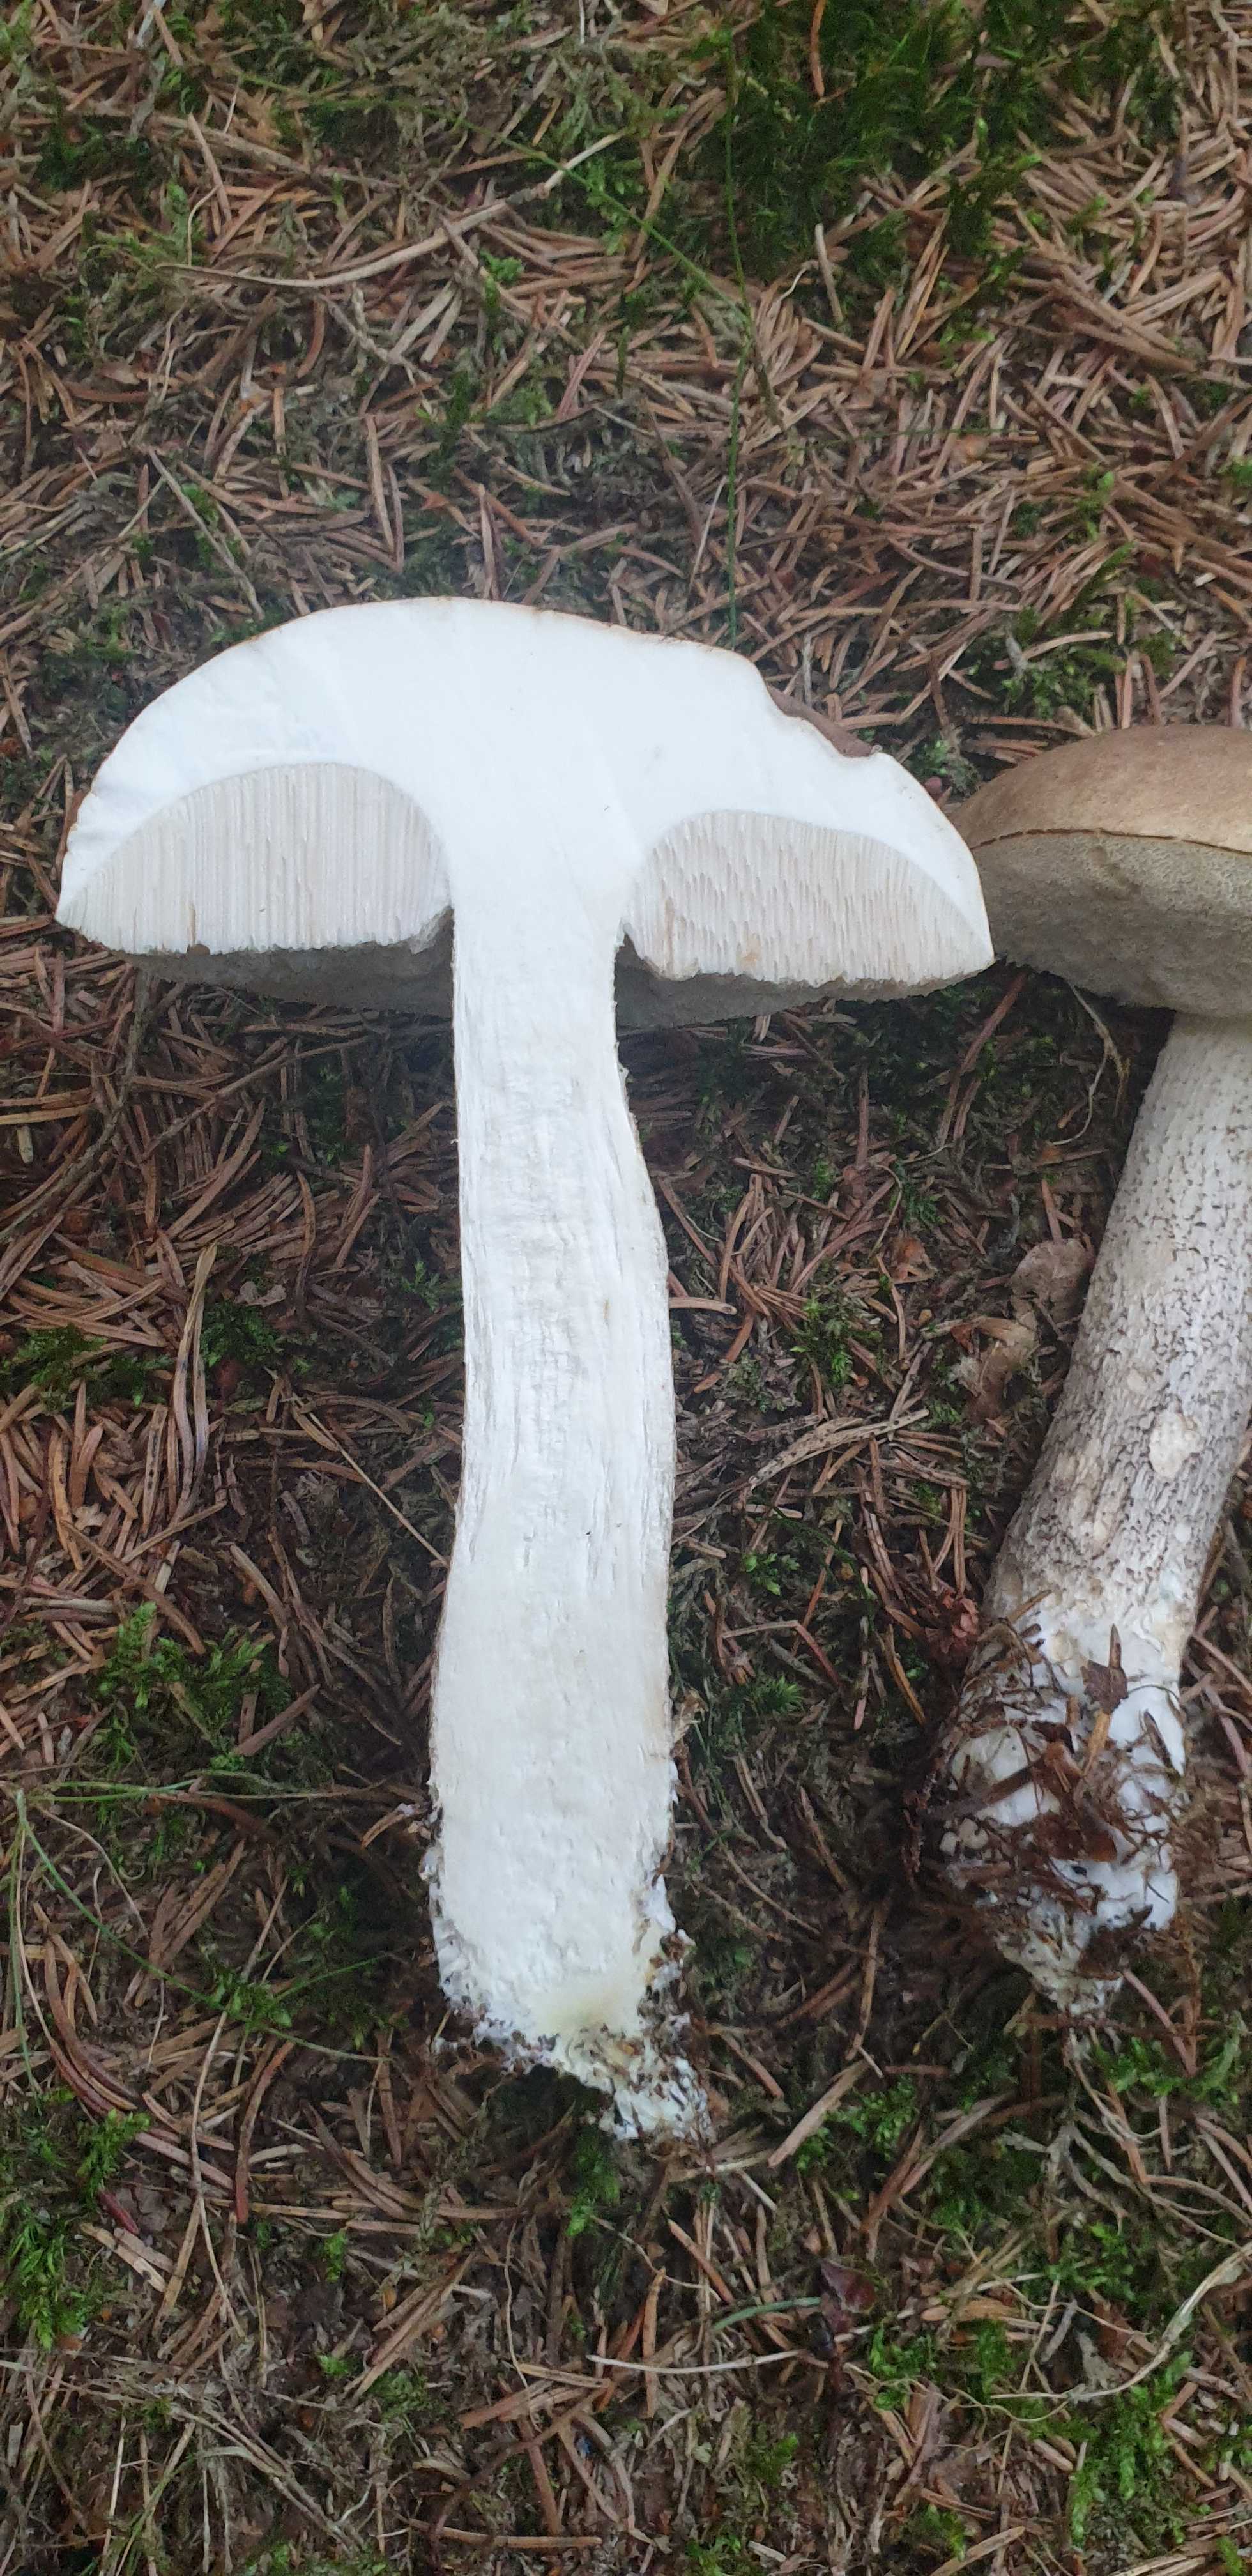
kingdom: Fungi
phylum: Basidiomycota
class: Agaricomycetes
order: Boletales
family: Boletaceae
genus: Leccinum
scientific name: Leccinum scabrum
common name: brun skælrørhat
